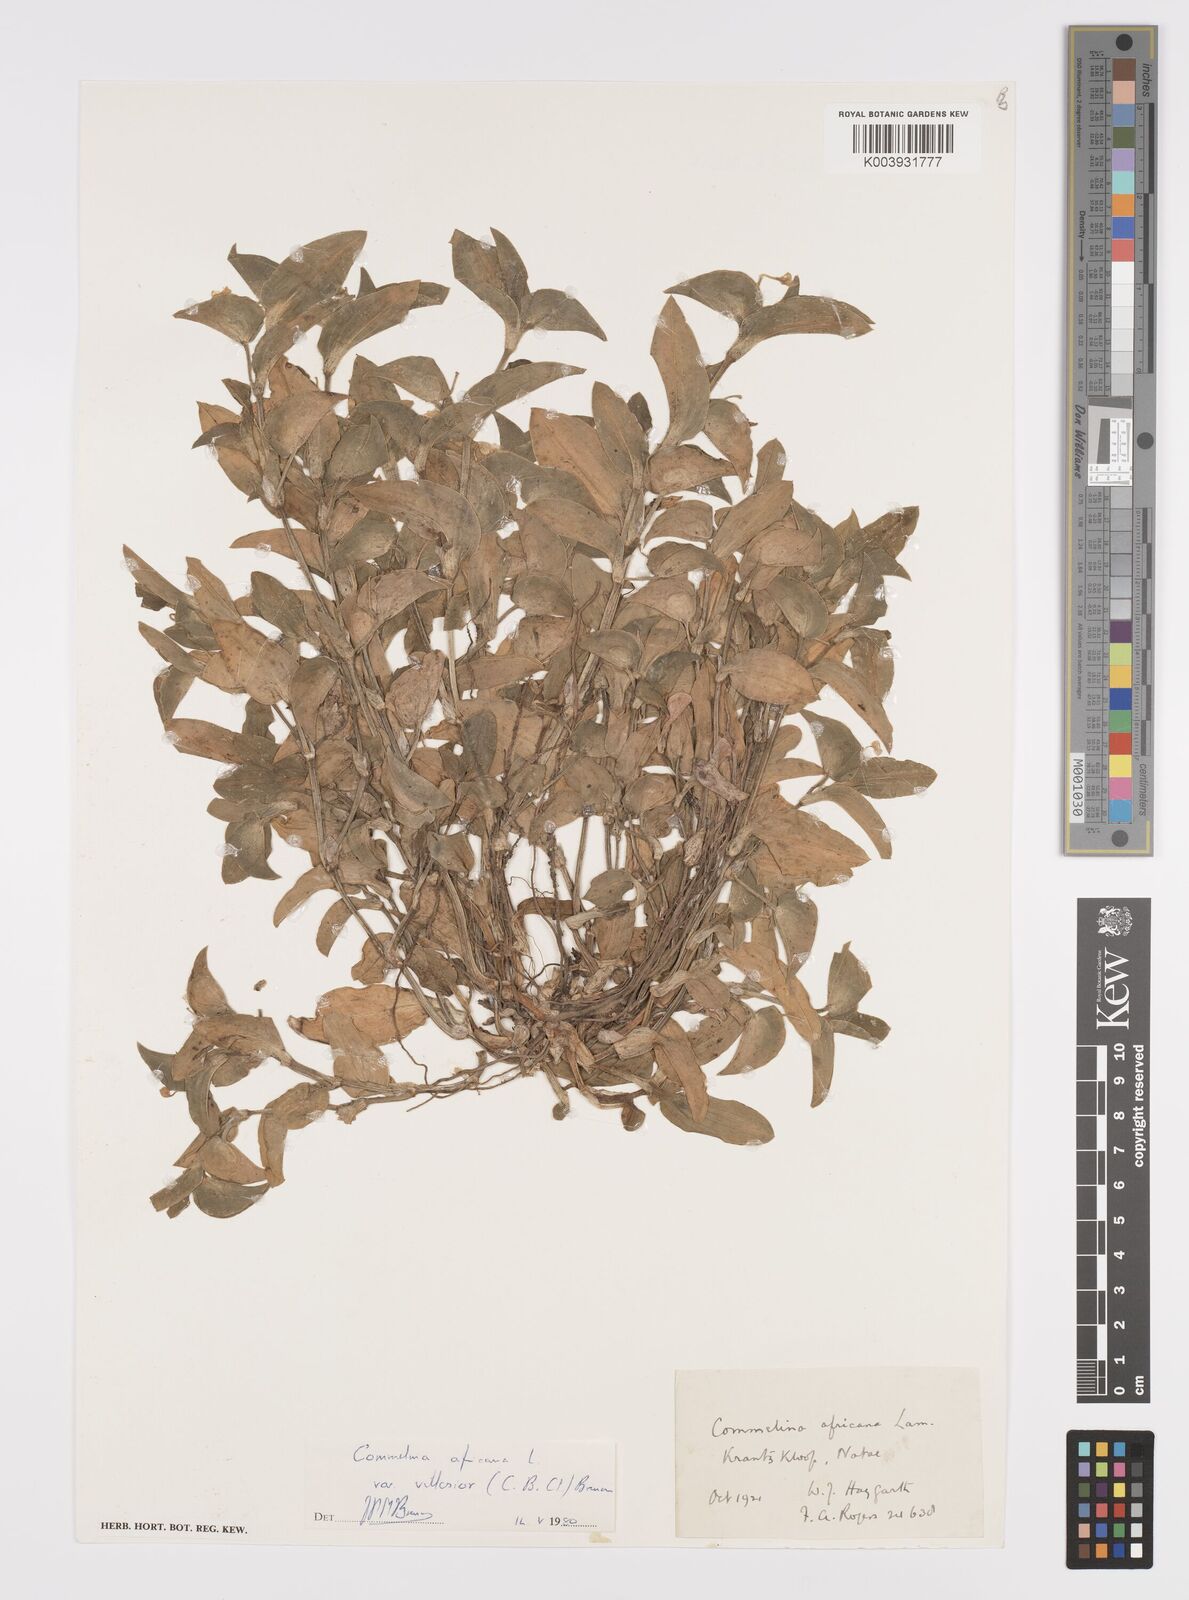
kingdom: Plantae
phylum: Tracheophyta
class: Liliopsida
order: Commelinales
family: Commelinaceae
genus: Commelina
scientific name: Commelina africana
